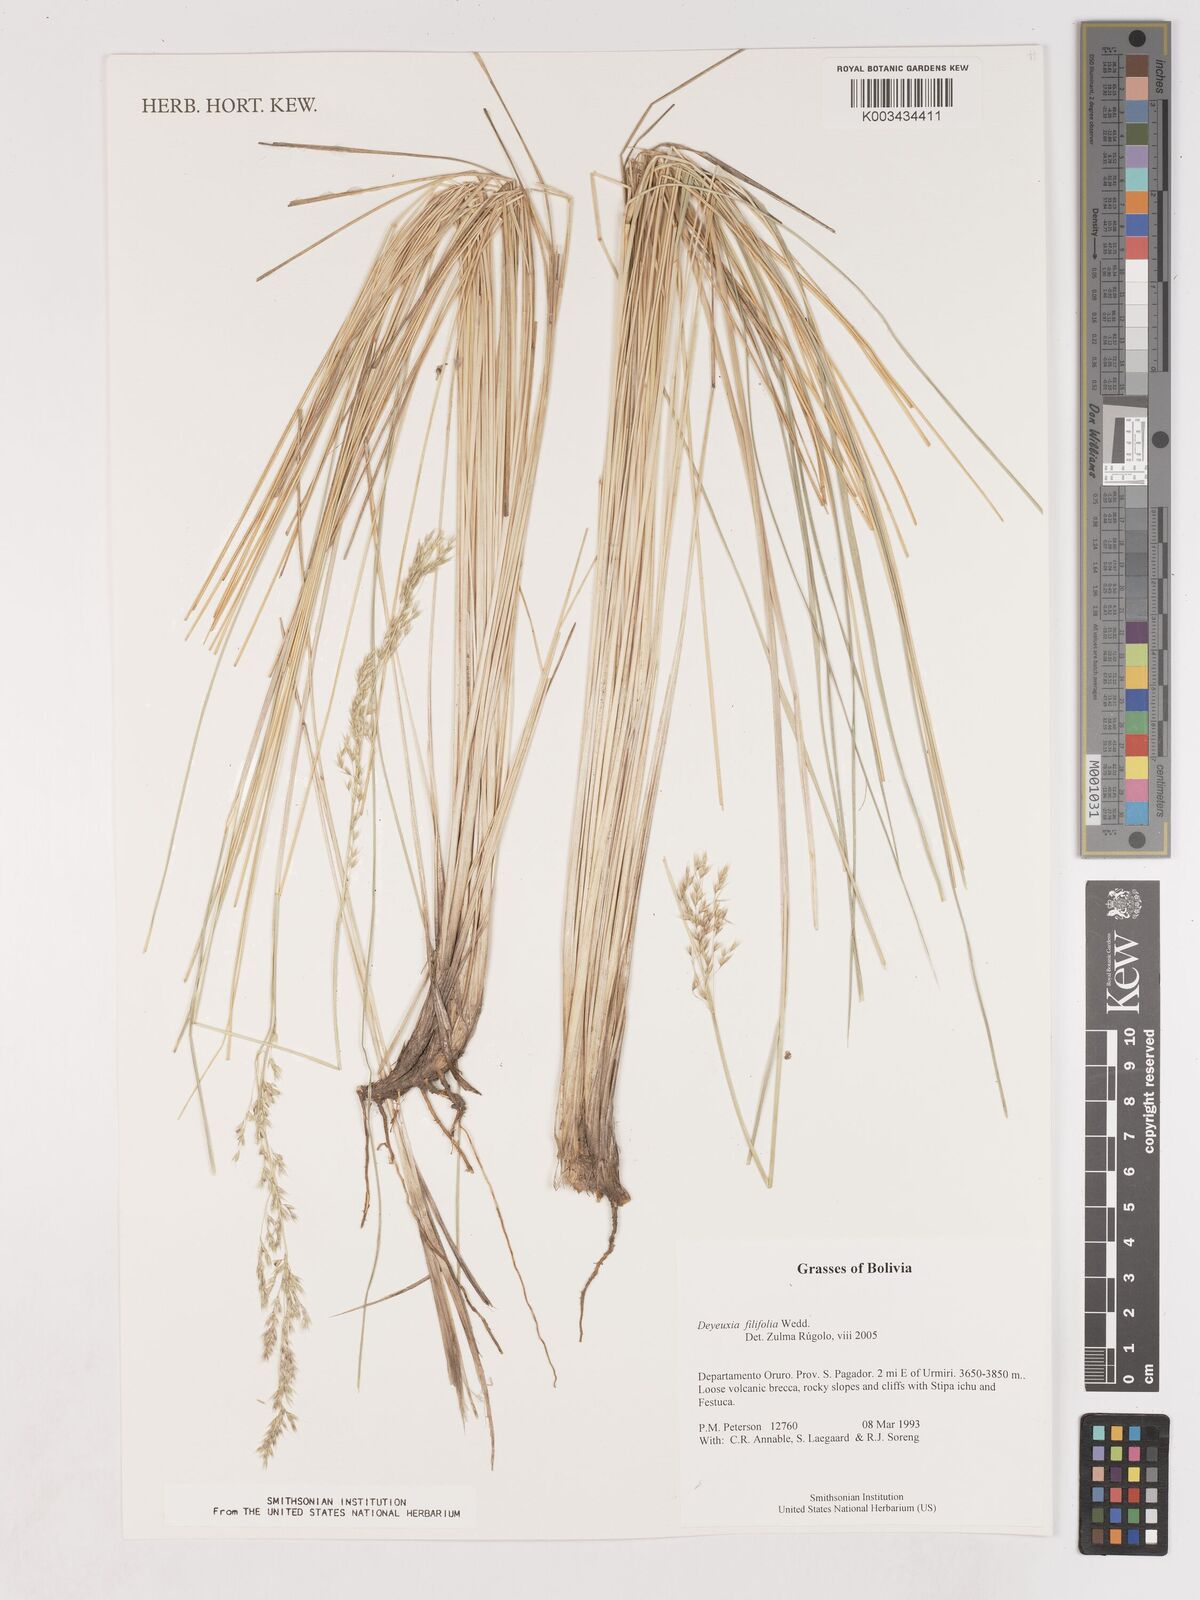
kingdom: Plantae
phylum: Tracheophyta
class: Liliopsida
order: Poales
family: Poaceae
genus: Cinnagrostis
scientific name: Cinnagrostis filifolia
